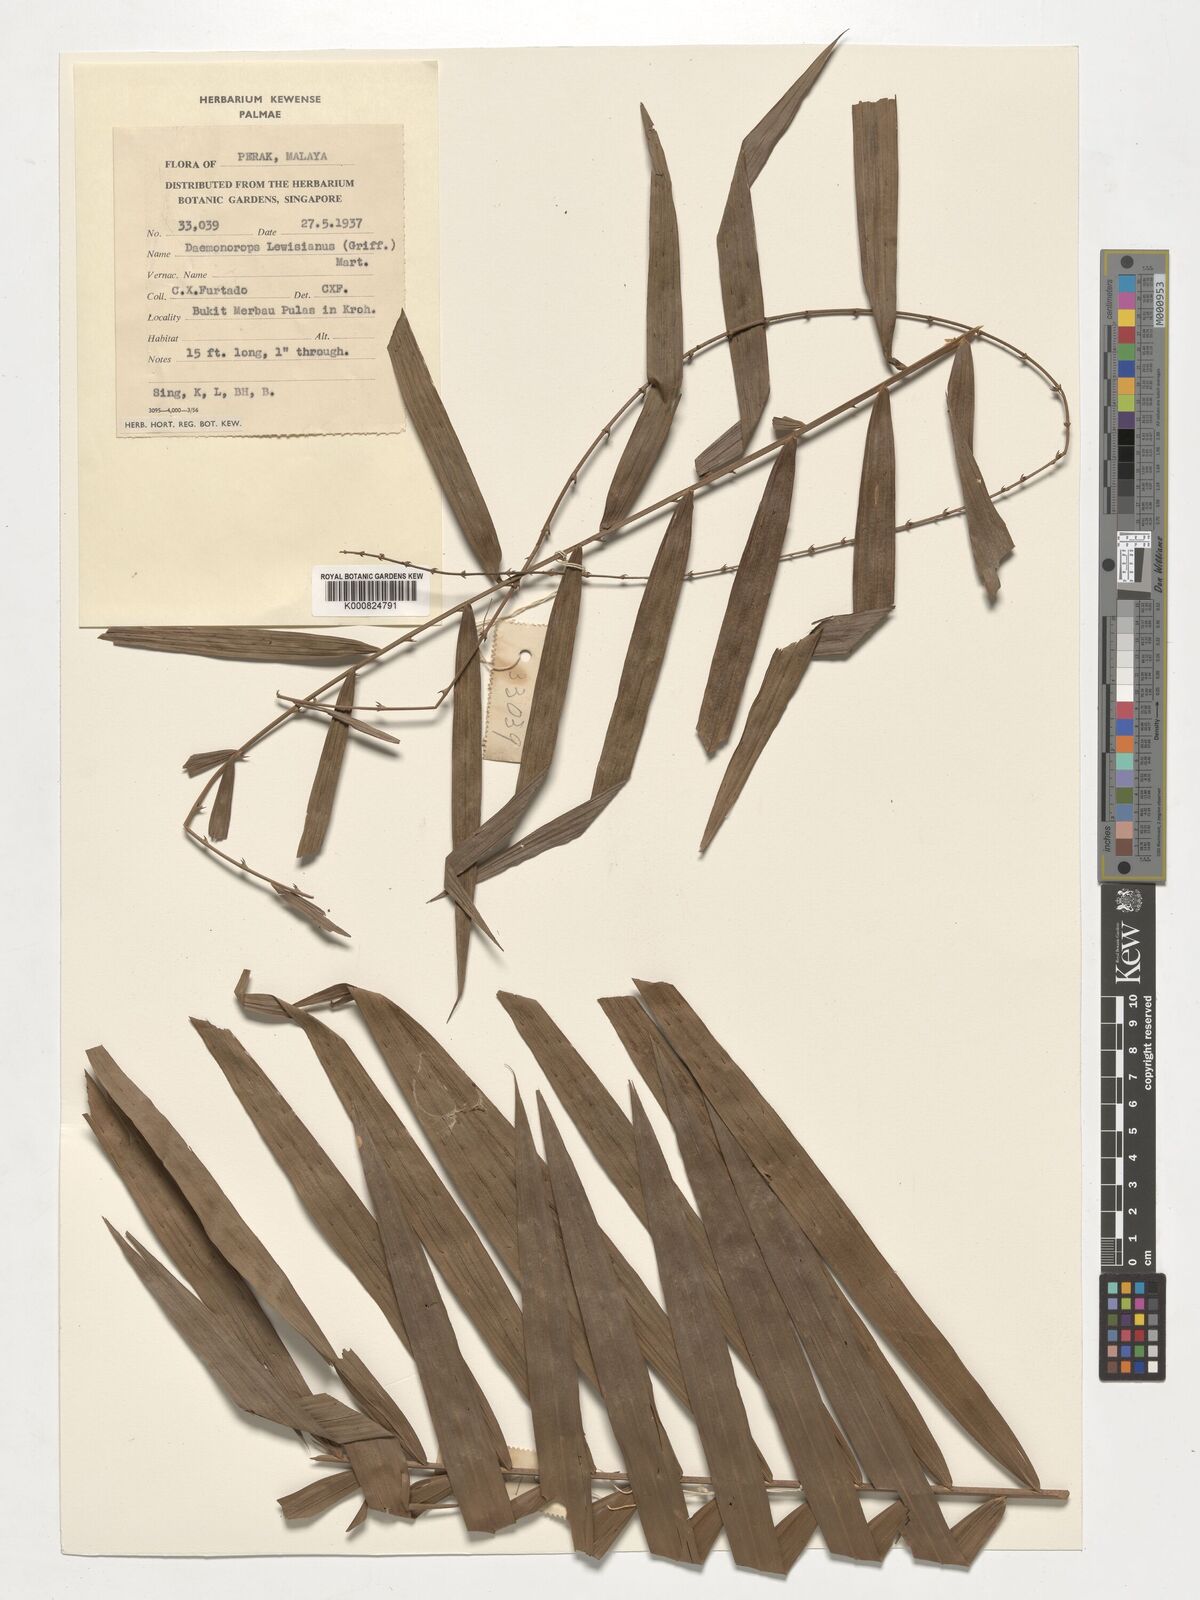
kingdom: Plantae
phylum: Tracheophyta
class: Liliopsida
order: Arecales
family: Arecaceae
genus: Calamus
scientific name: Calamus melanochaetes
